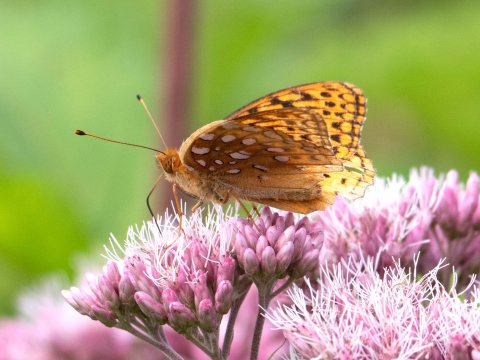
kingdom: Animalia
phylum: Arthropoda
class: Insecta
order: Lepidoptera
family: Nymphalidae
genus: Speyeria
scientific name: Speyeria cybele
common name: Great Spangled Fritillary
